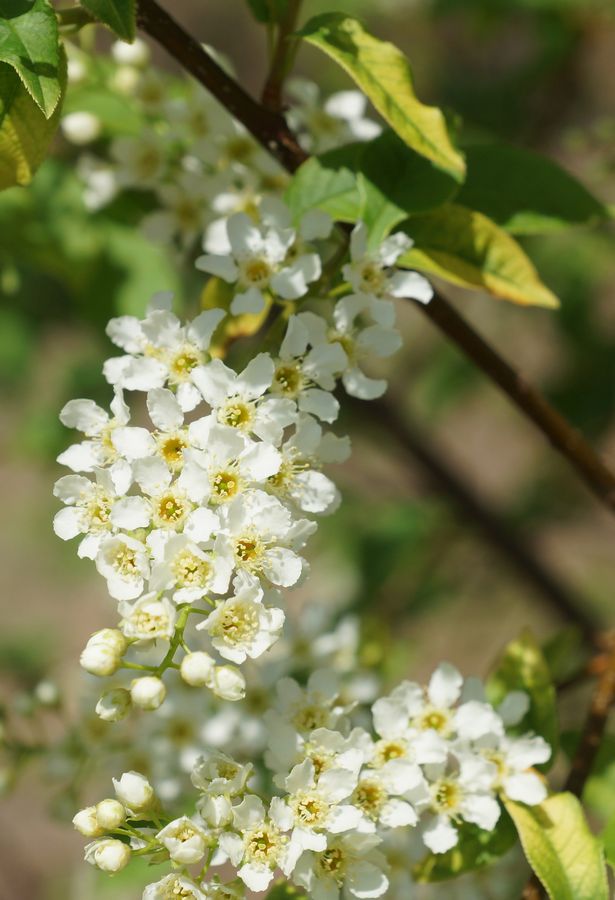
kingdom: Plantae
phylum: Tracheophyta
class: Magnoliopsida
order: Rosales
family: Rosaceae
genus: Prunus
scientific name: Prunus padus
